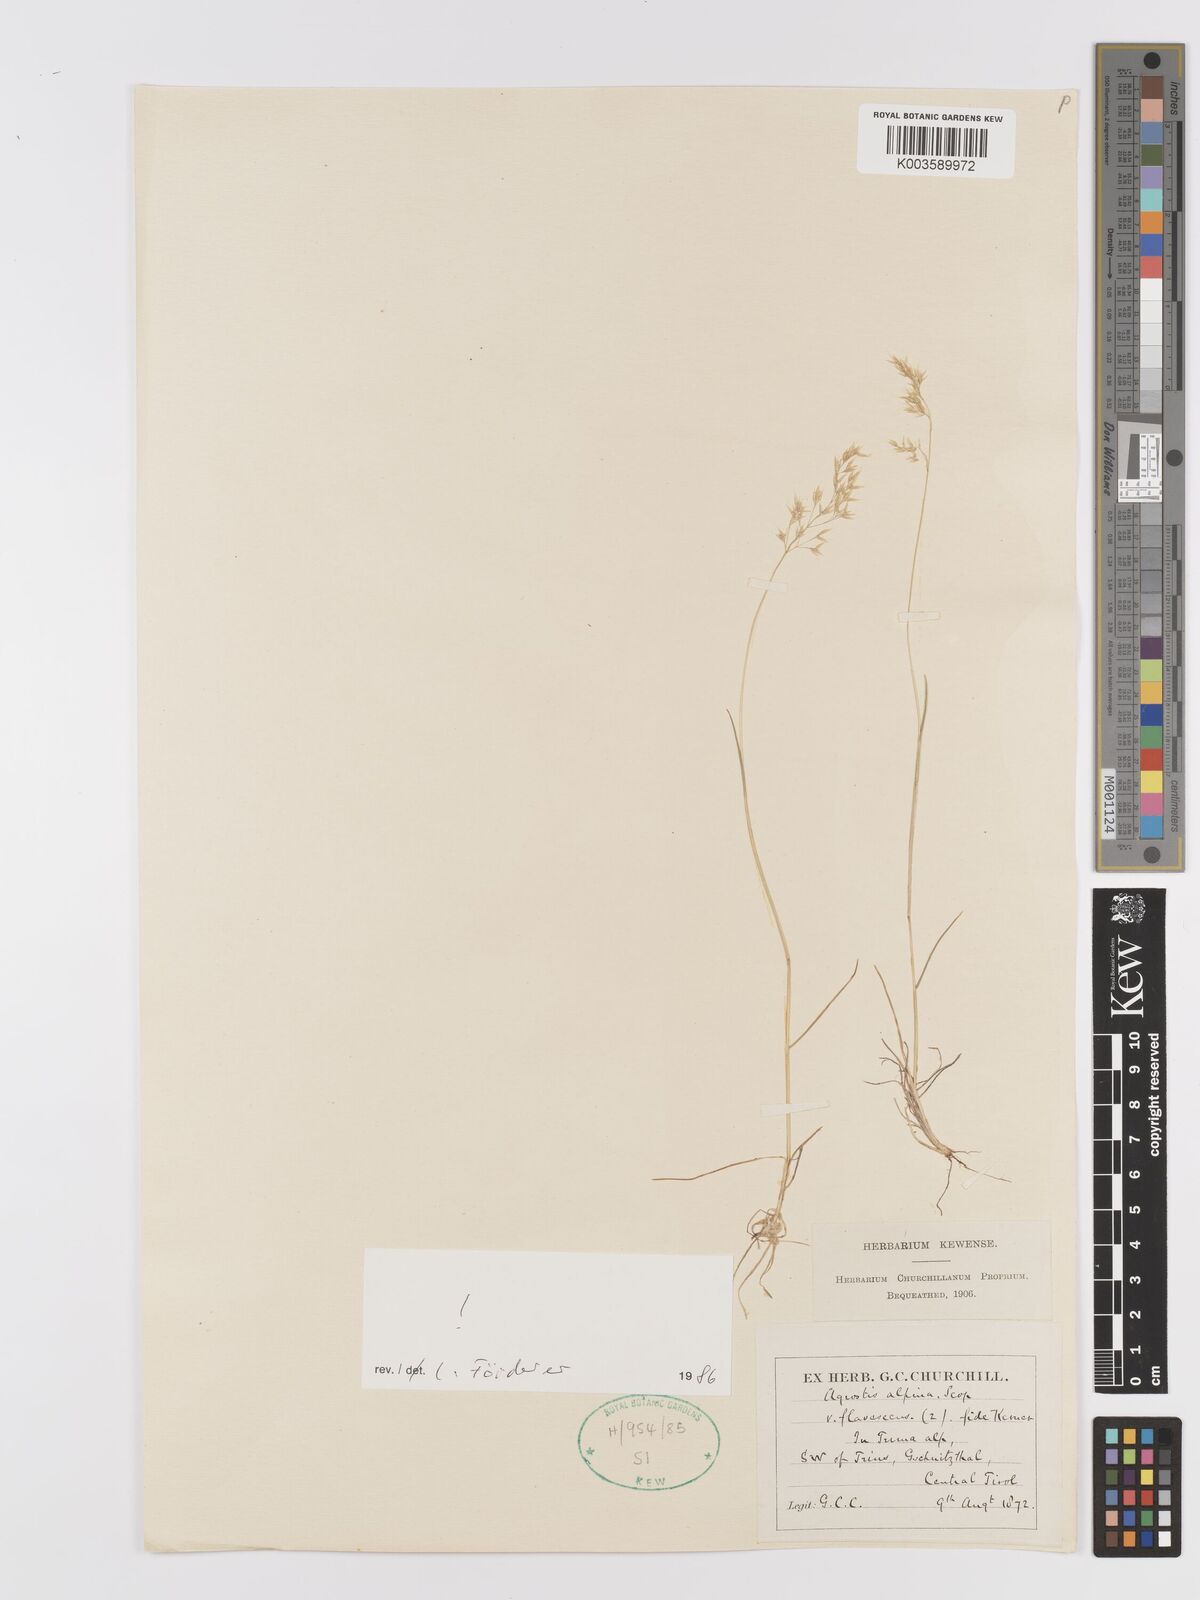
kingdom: Plantae
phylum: Tracheophyta
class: Liliopsida
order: Poales
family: Poaceae
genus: Alpagrostis
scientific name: Alpagrostis alpina
